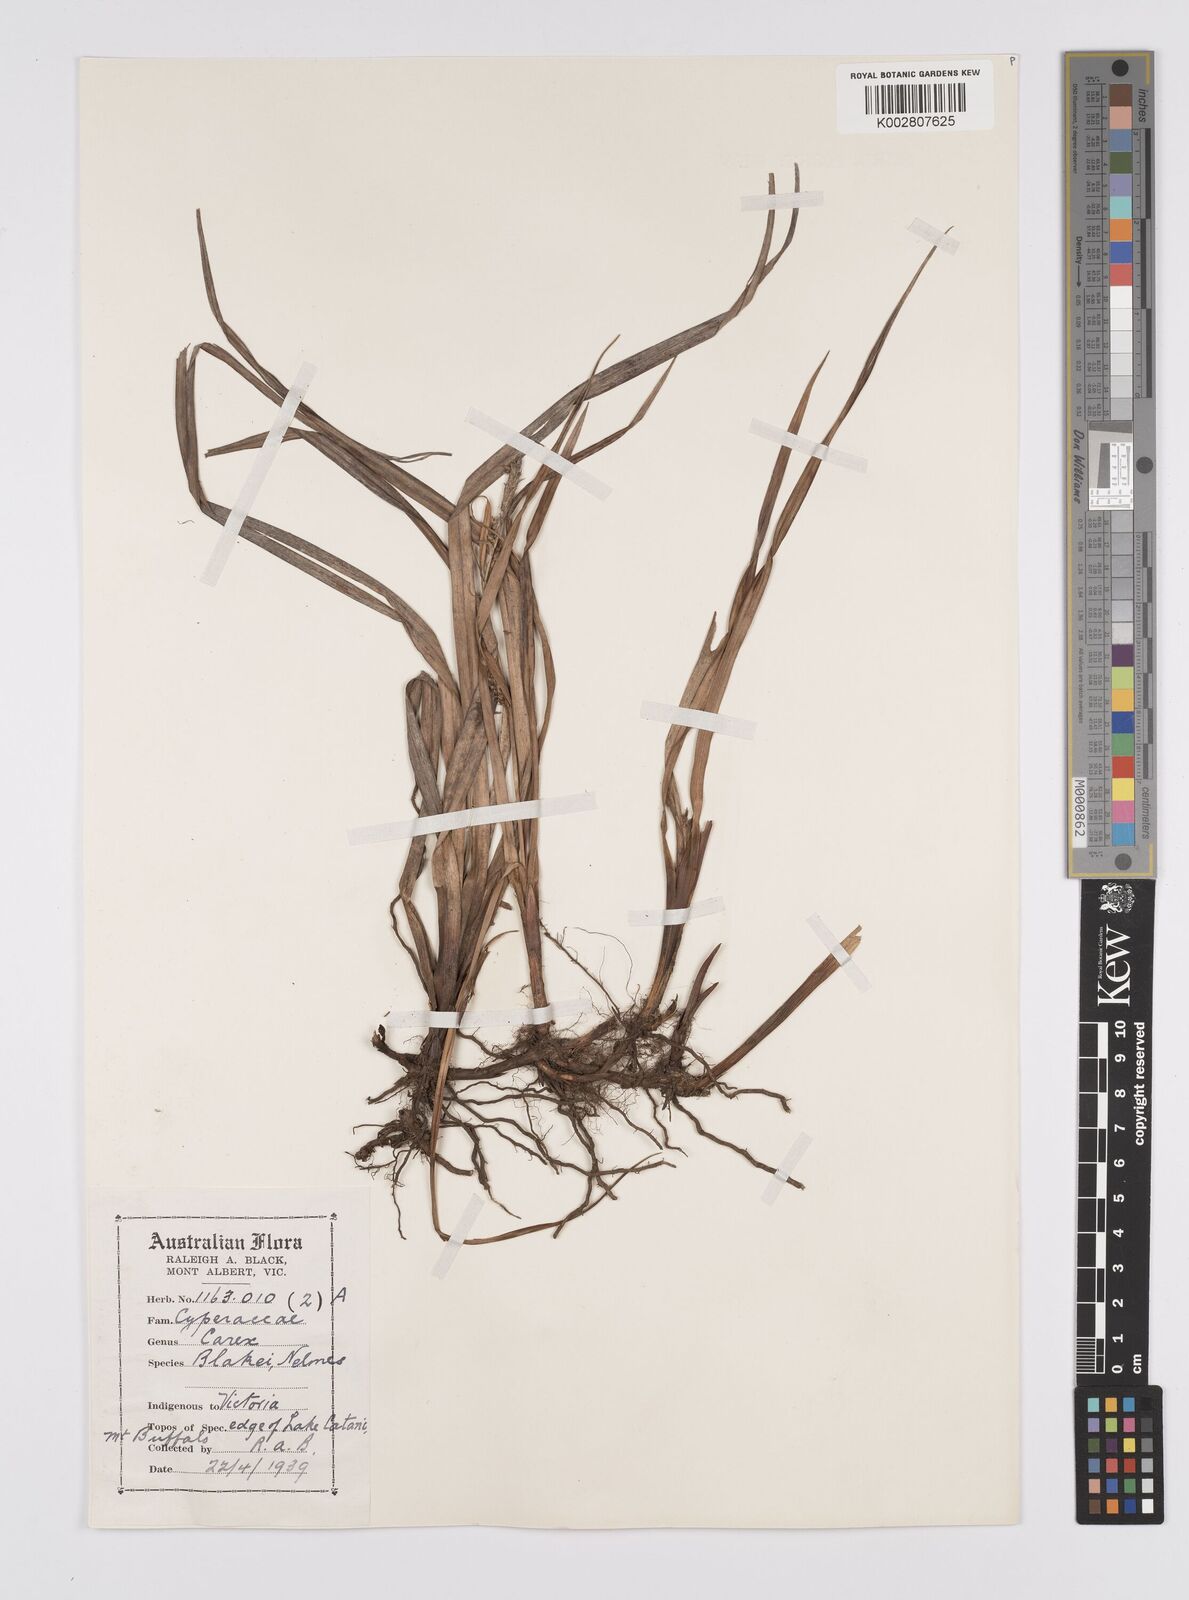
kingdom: Plantae
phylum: Tracheophyta
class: Liliopsida
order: Poales
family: Cyperaceae
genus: Carex
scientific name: Carex blakei
